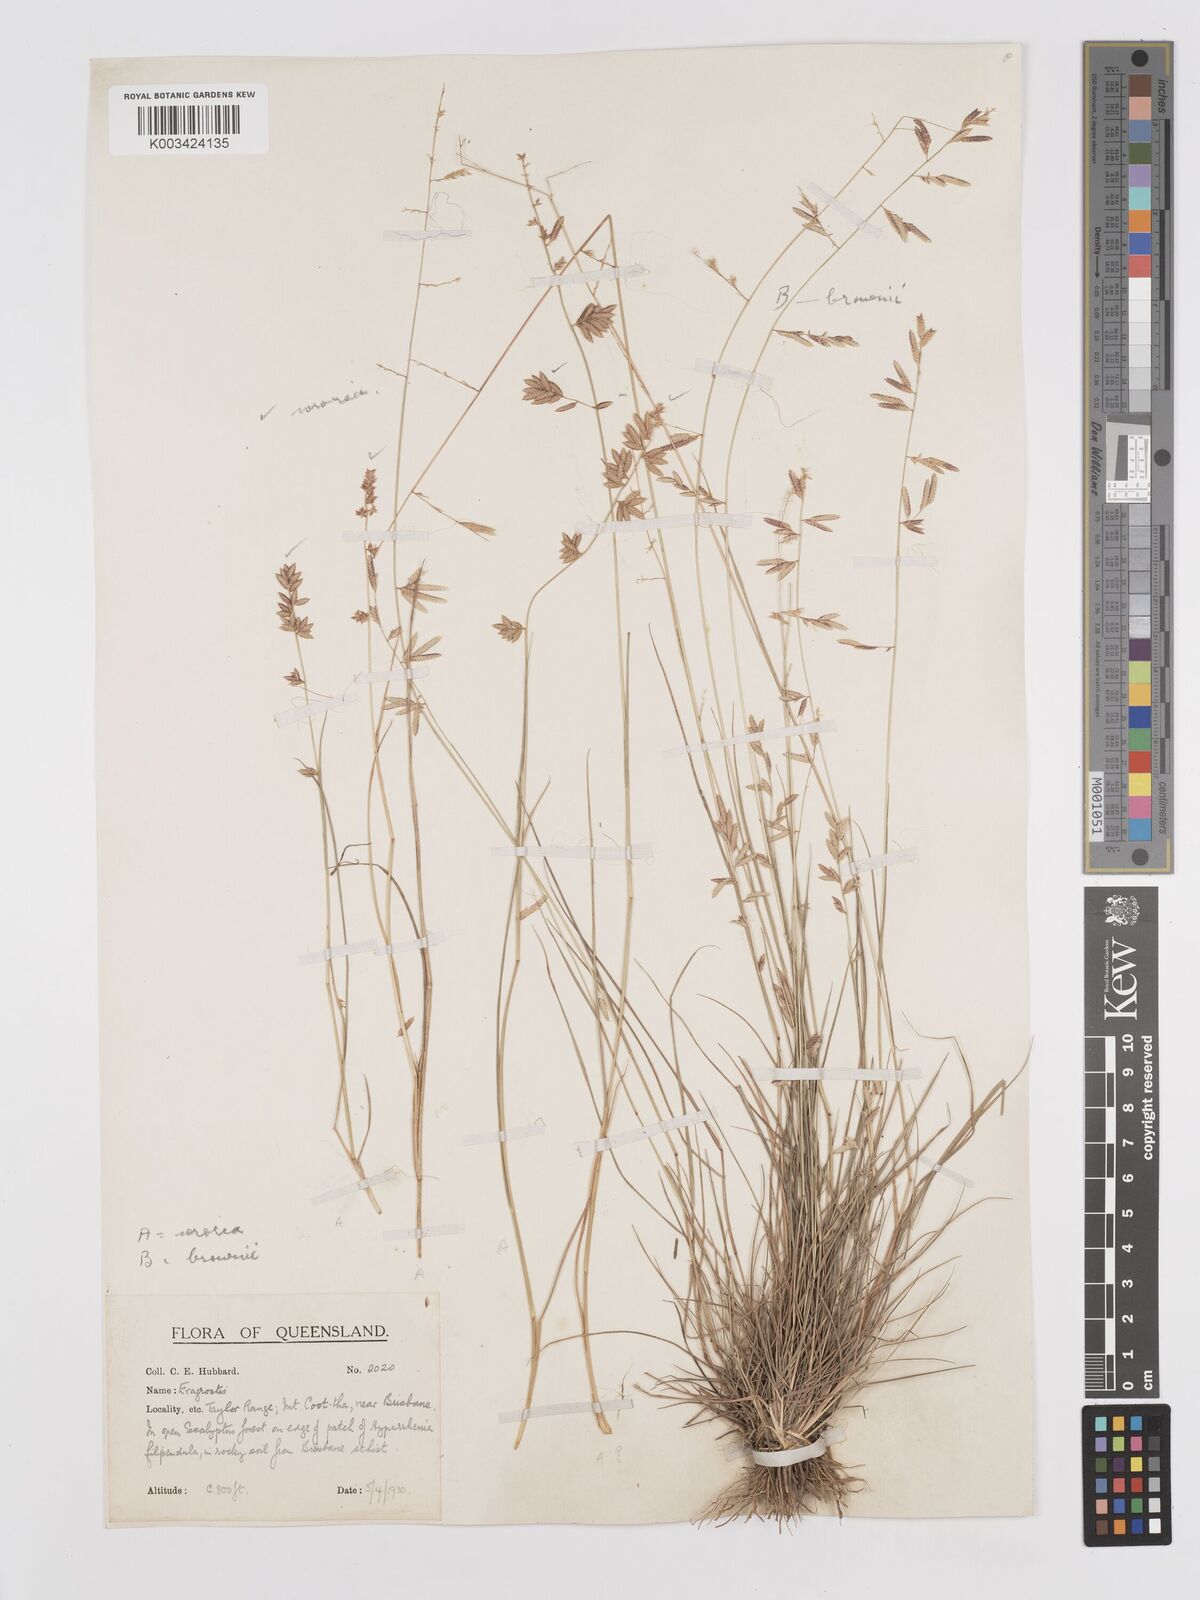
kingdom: Plantae
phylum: Tracheophyta
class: Liliopsida
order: Poales
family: Poaceae
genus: Eragrostis
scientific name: Eragrostis brownii
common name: Lovegrass
